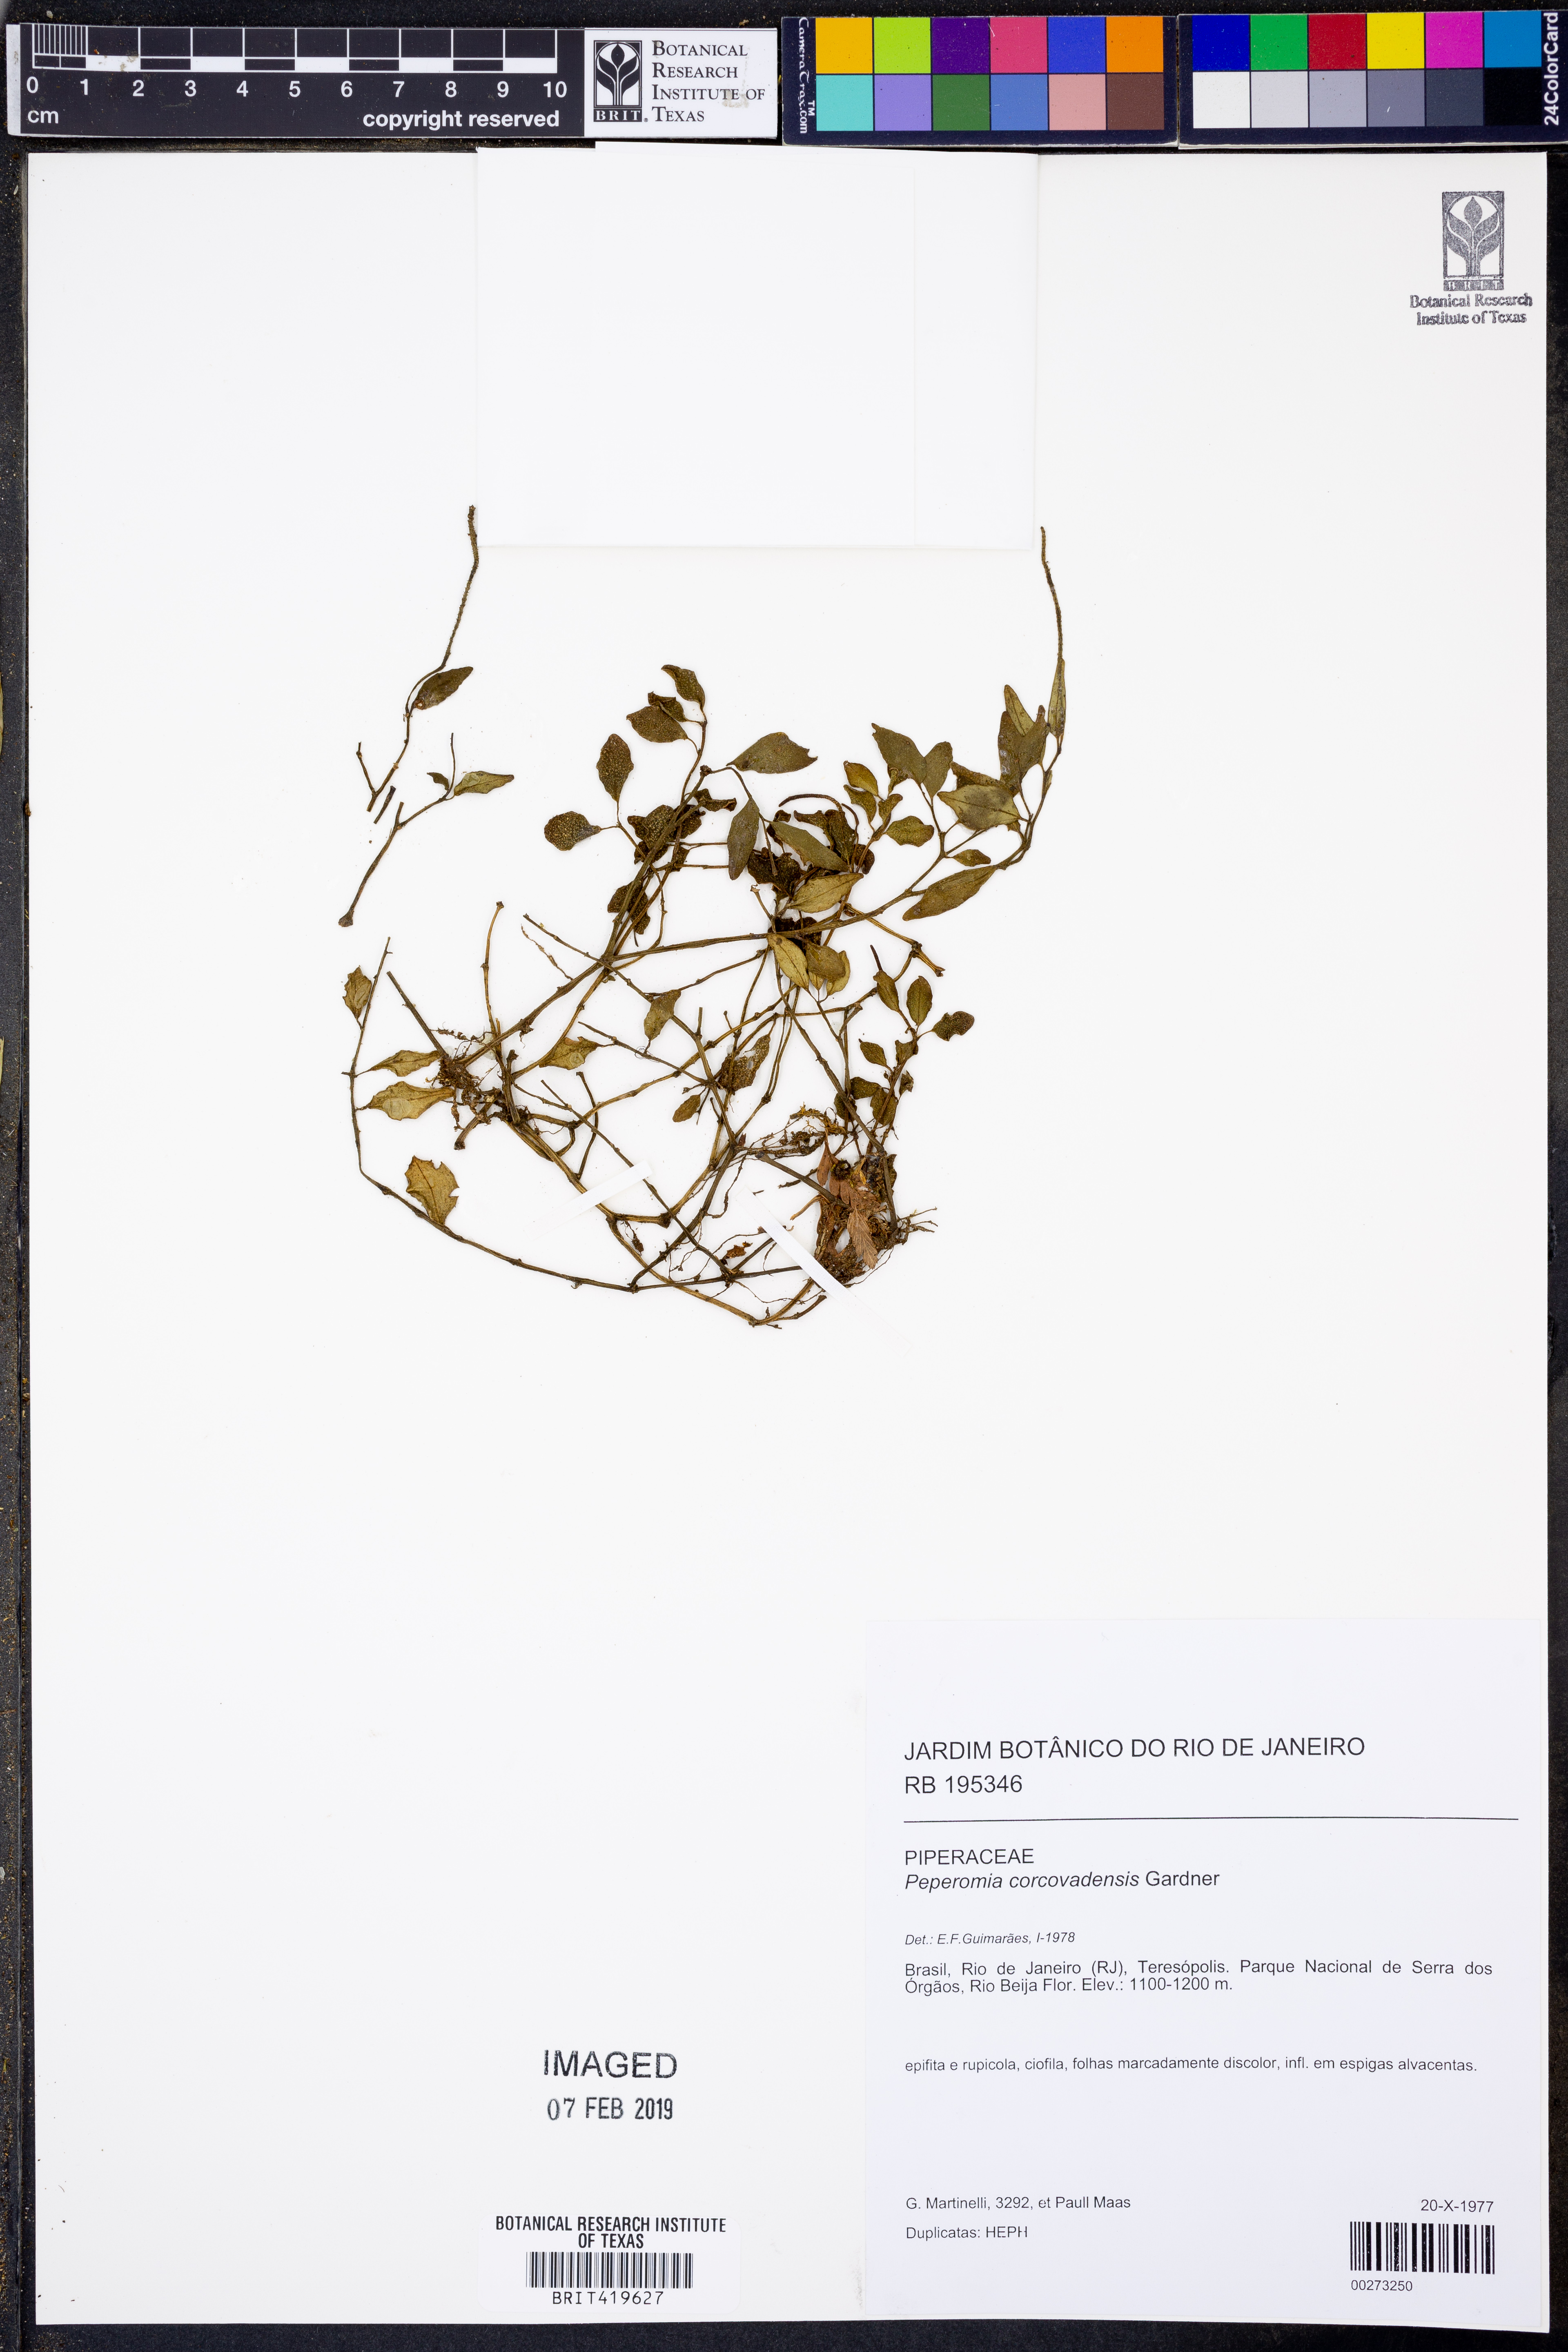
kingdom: Plantae
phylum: Tracheophyta
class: Magnoliopsida
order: Piperales
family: Piperaceae
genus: Peperomia
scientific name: Peperomia corcovadensis
